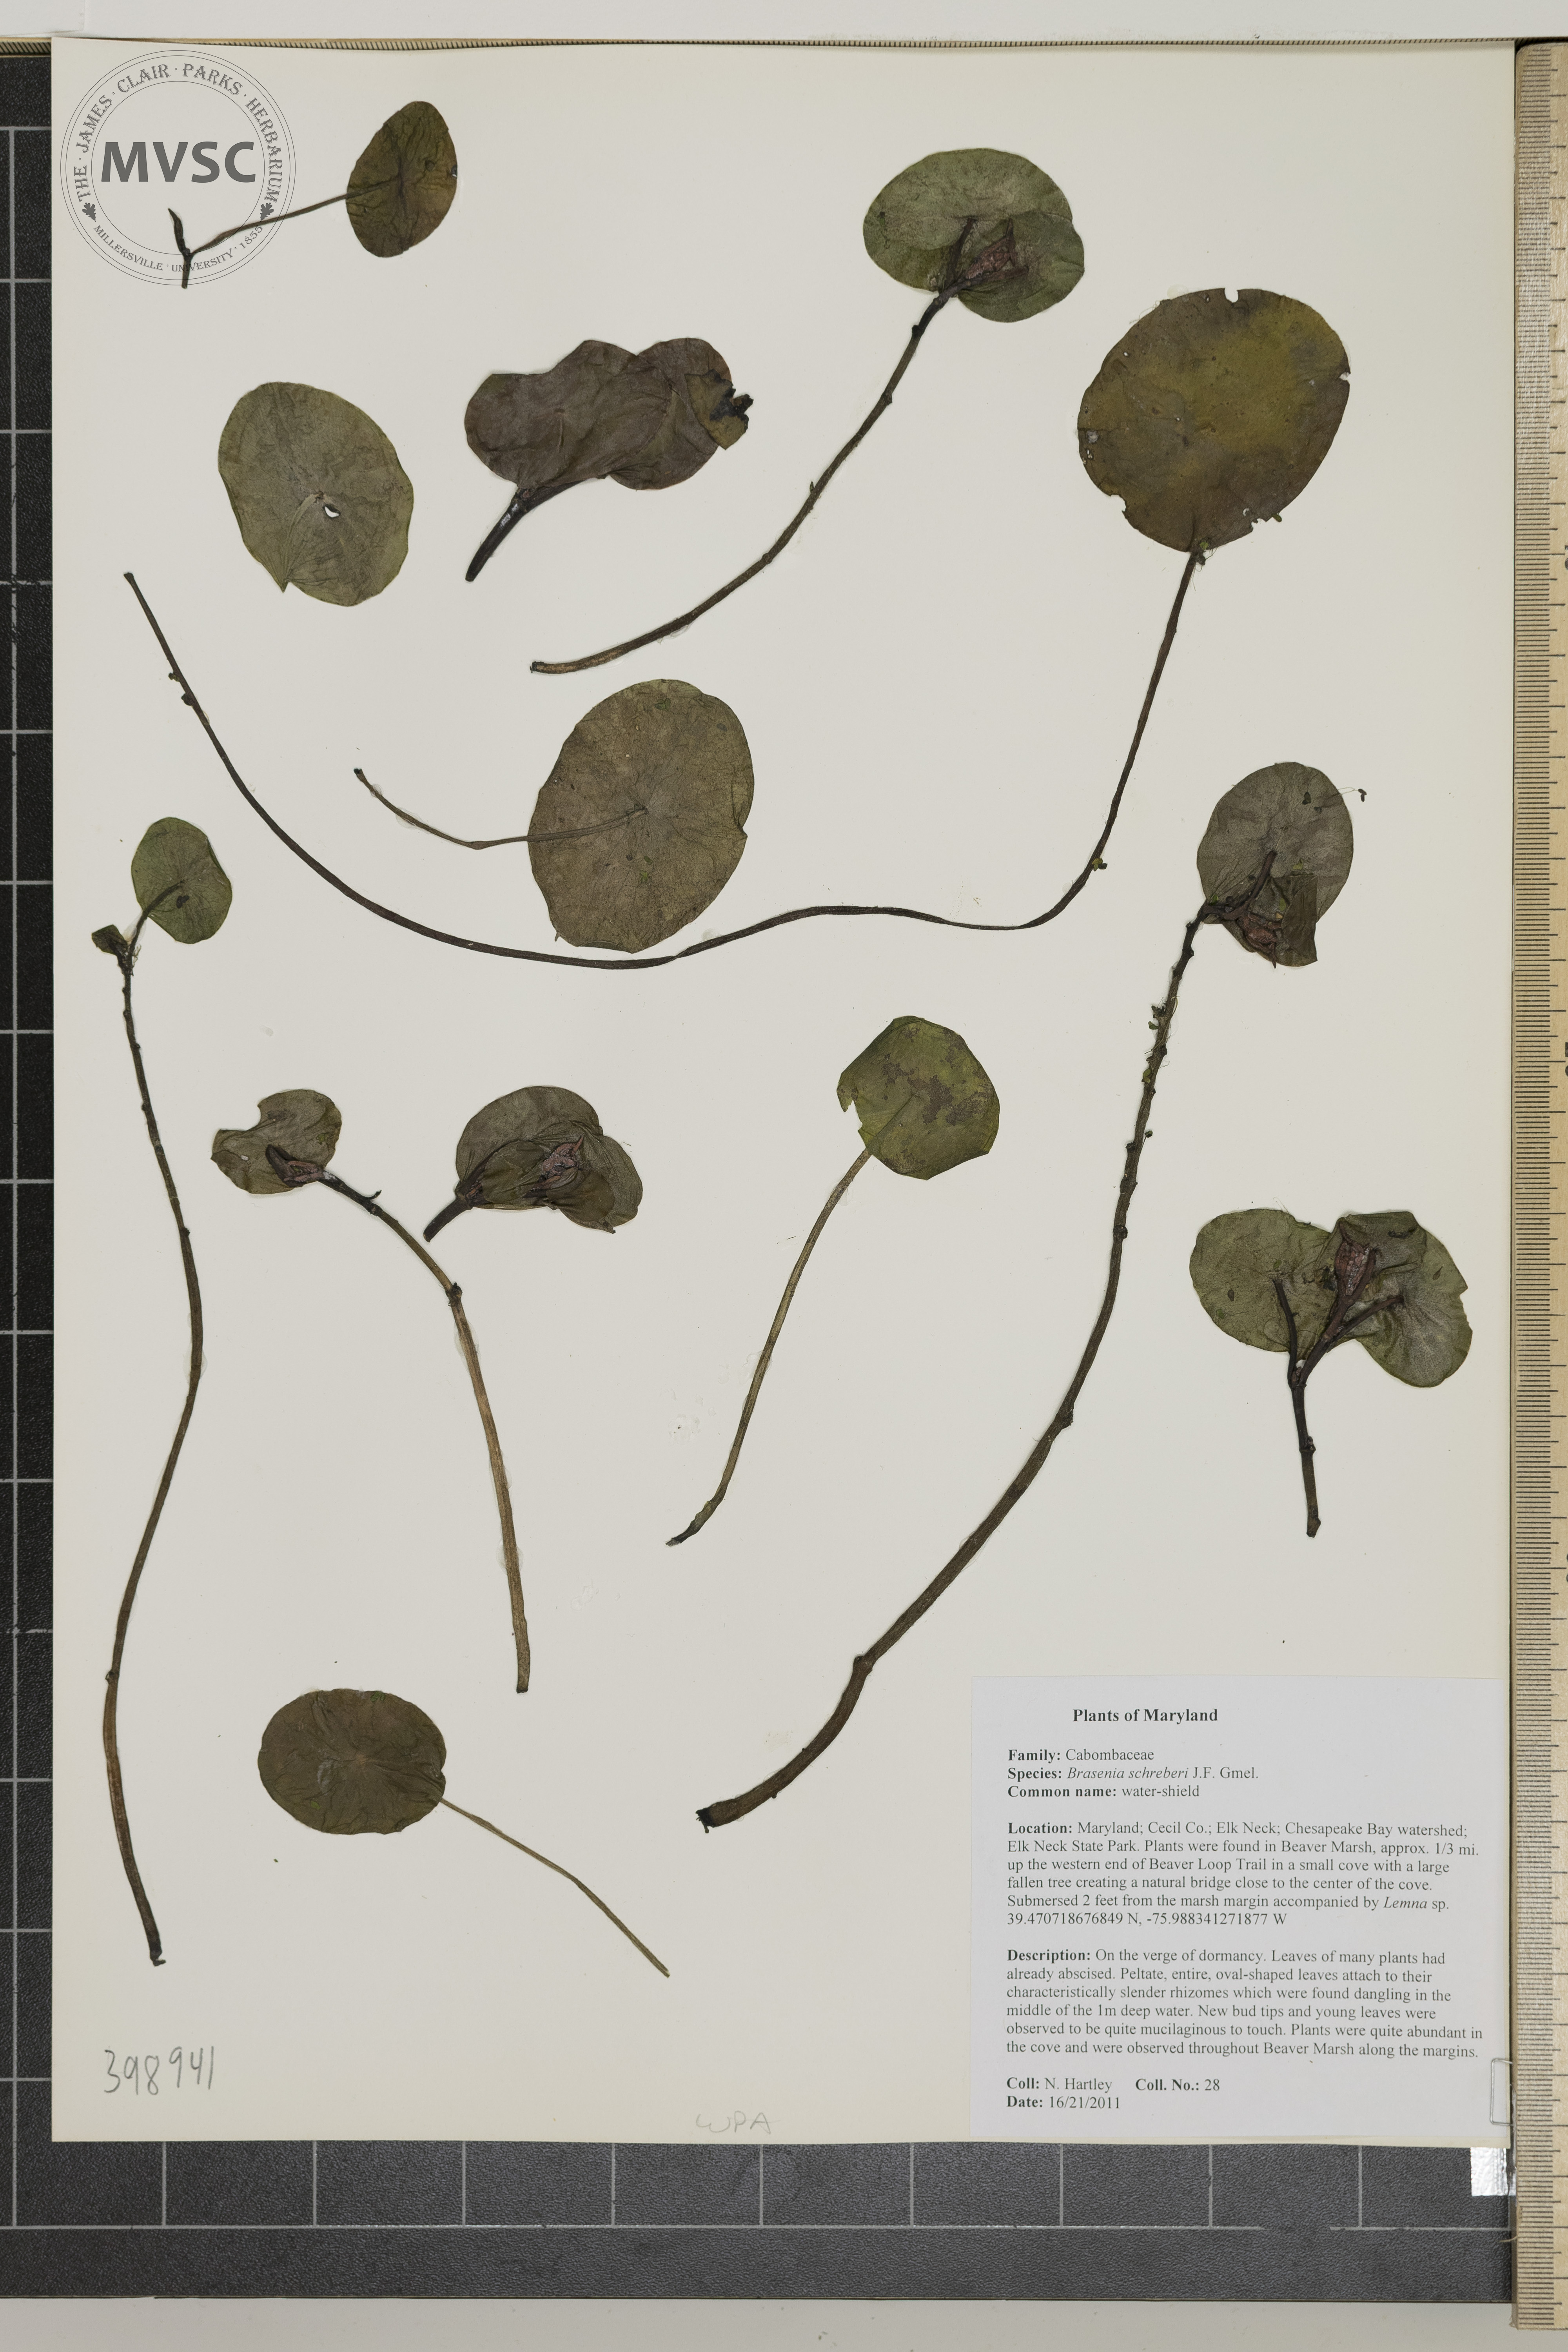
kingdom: Plantae
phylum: Tracheophyta
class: Magnoliopsida
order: Nymphaeales
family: Cabombaceae
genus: Brasenia
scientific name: Brasenia schreberi
